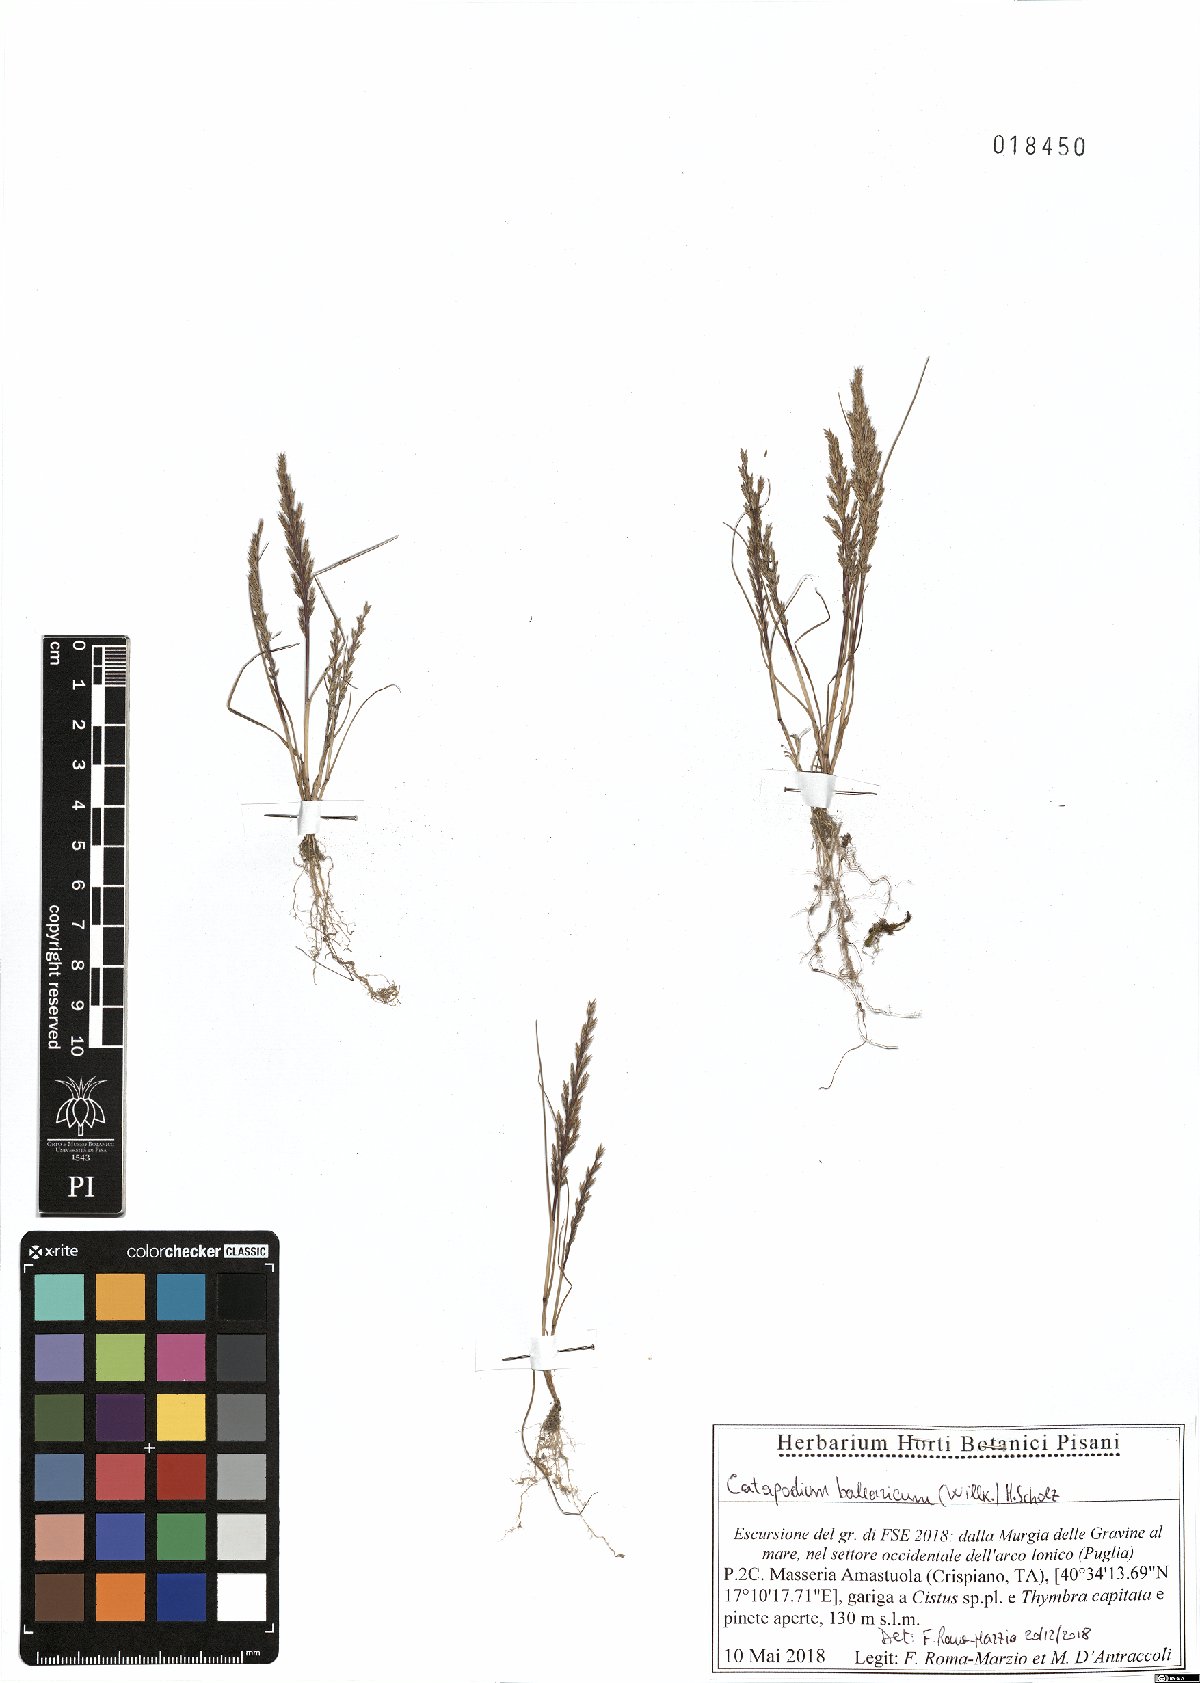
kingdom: Plantae
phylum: Tracheophyta
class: Liliopsida
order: Poales
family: Poaceae
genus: Catapodium
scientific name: Catapodium balearicum
